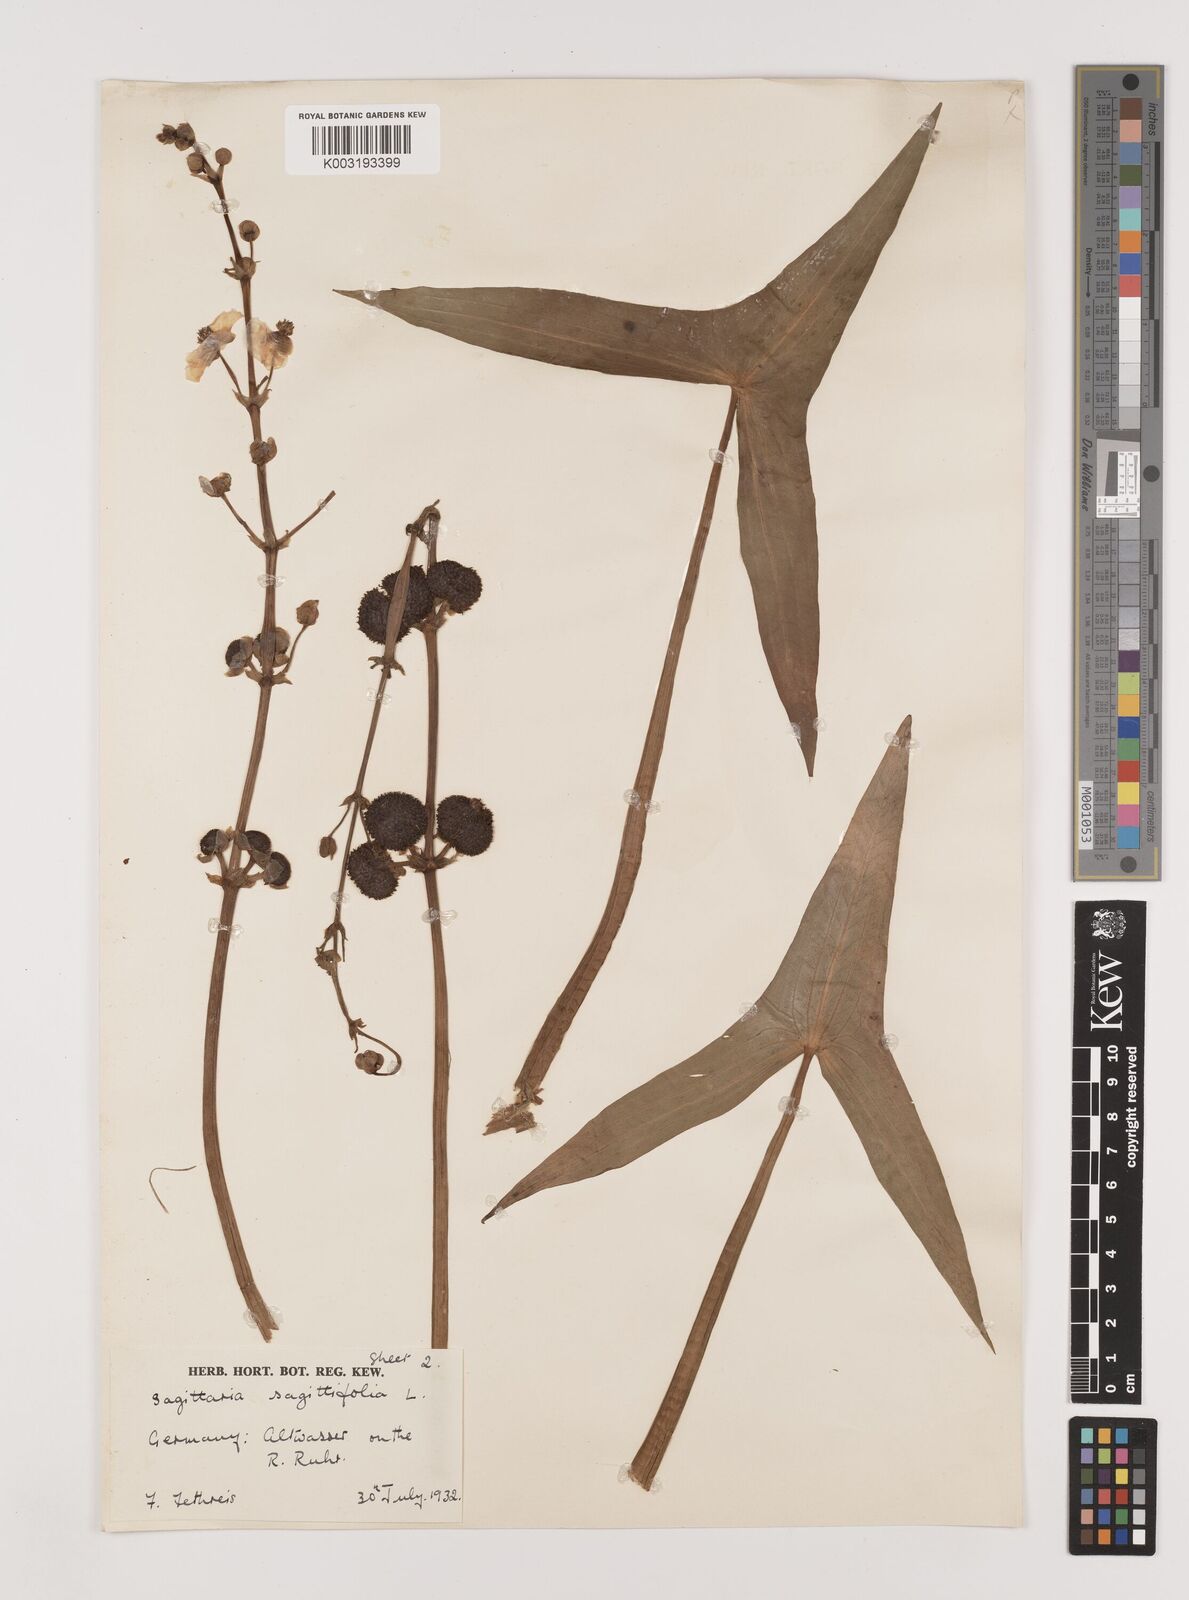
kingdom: Plantae
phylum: Tracheophyta
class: Liliopsida
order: Alismatales
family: Alismataceae
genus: Sagittaria
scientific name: Sagittaria sagittifolia
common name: Arrowhead
